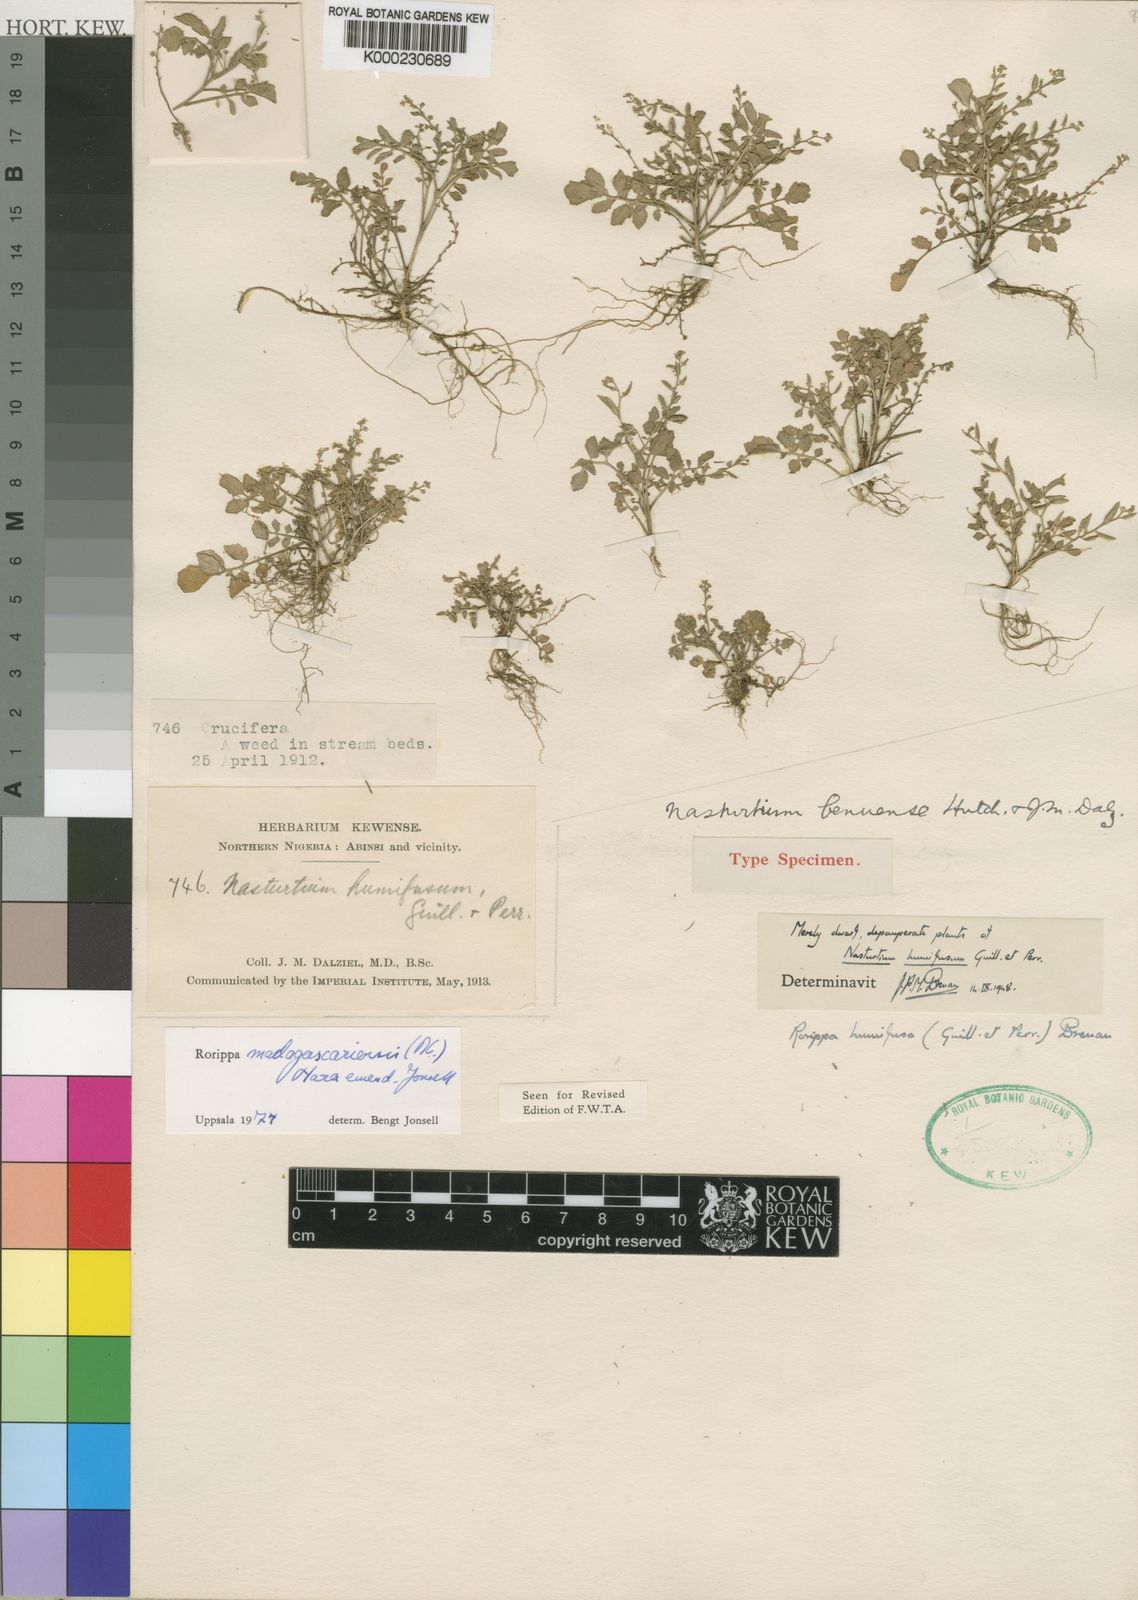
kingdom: Plantae
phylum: Tracheophyta
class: Magnoliopsida
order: Brassicales
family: Brassicaceae
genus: Rorippa
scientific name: Rorippa madagascariense
